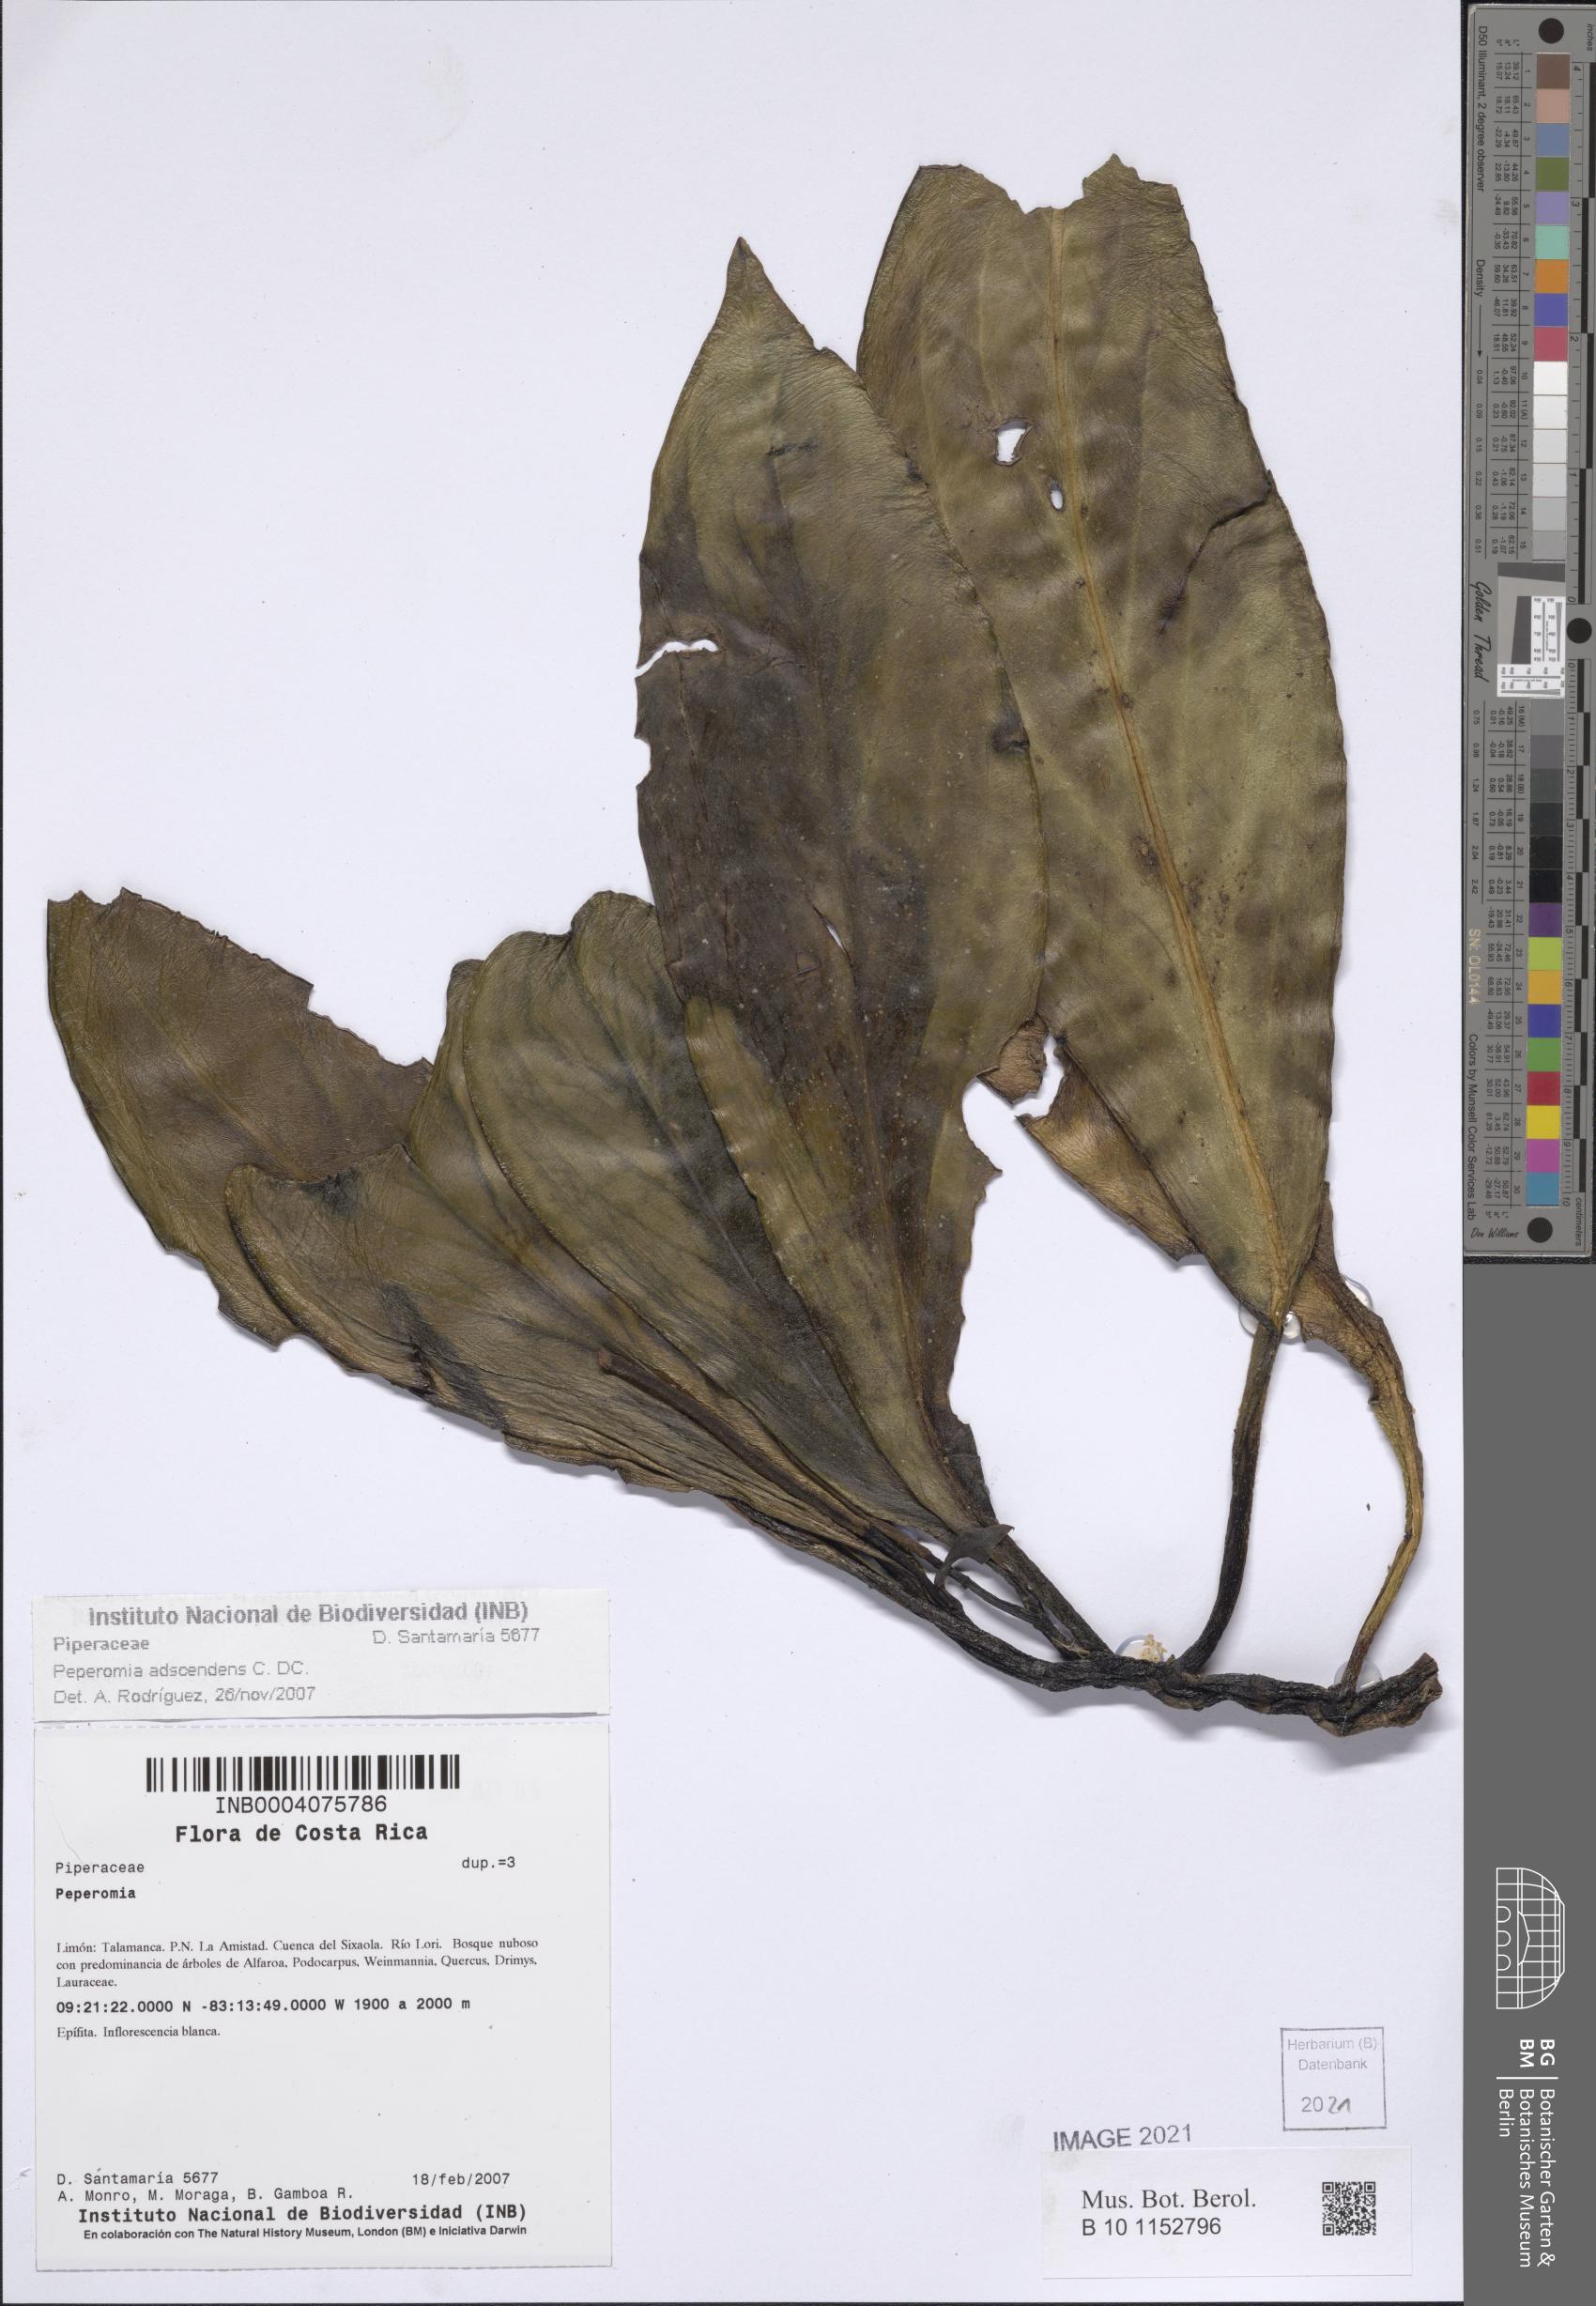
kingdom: Plantae
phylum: Tracheophyta
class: Magnoliopsida
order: Piperales
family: Piperaceae
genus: Peperomia
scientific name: Peperomia adscendens
